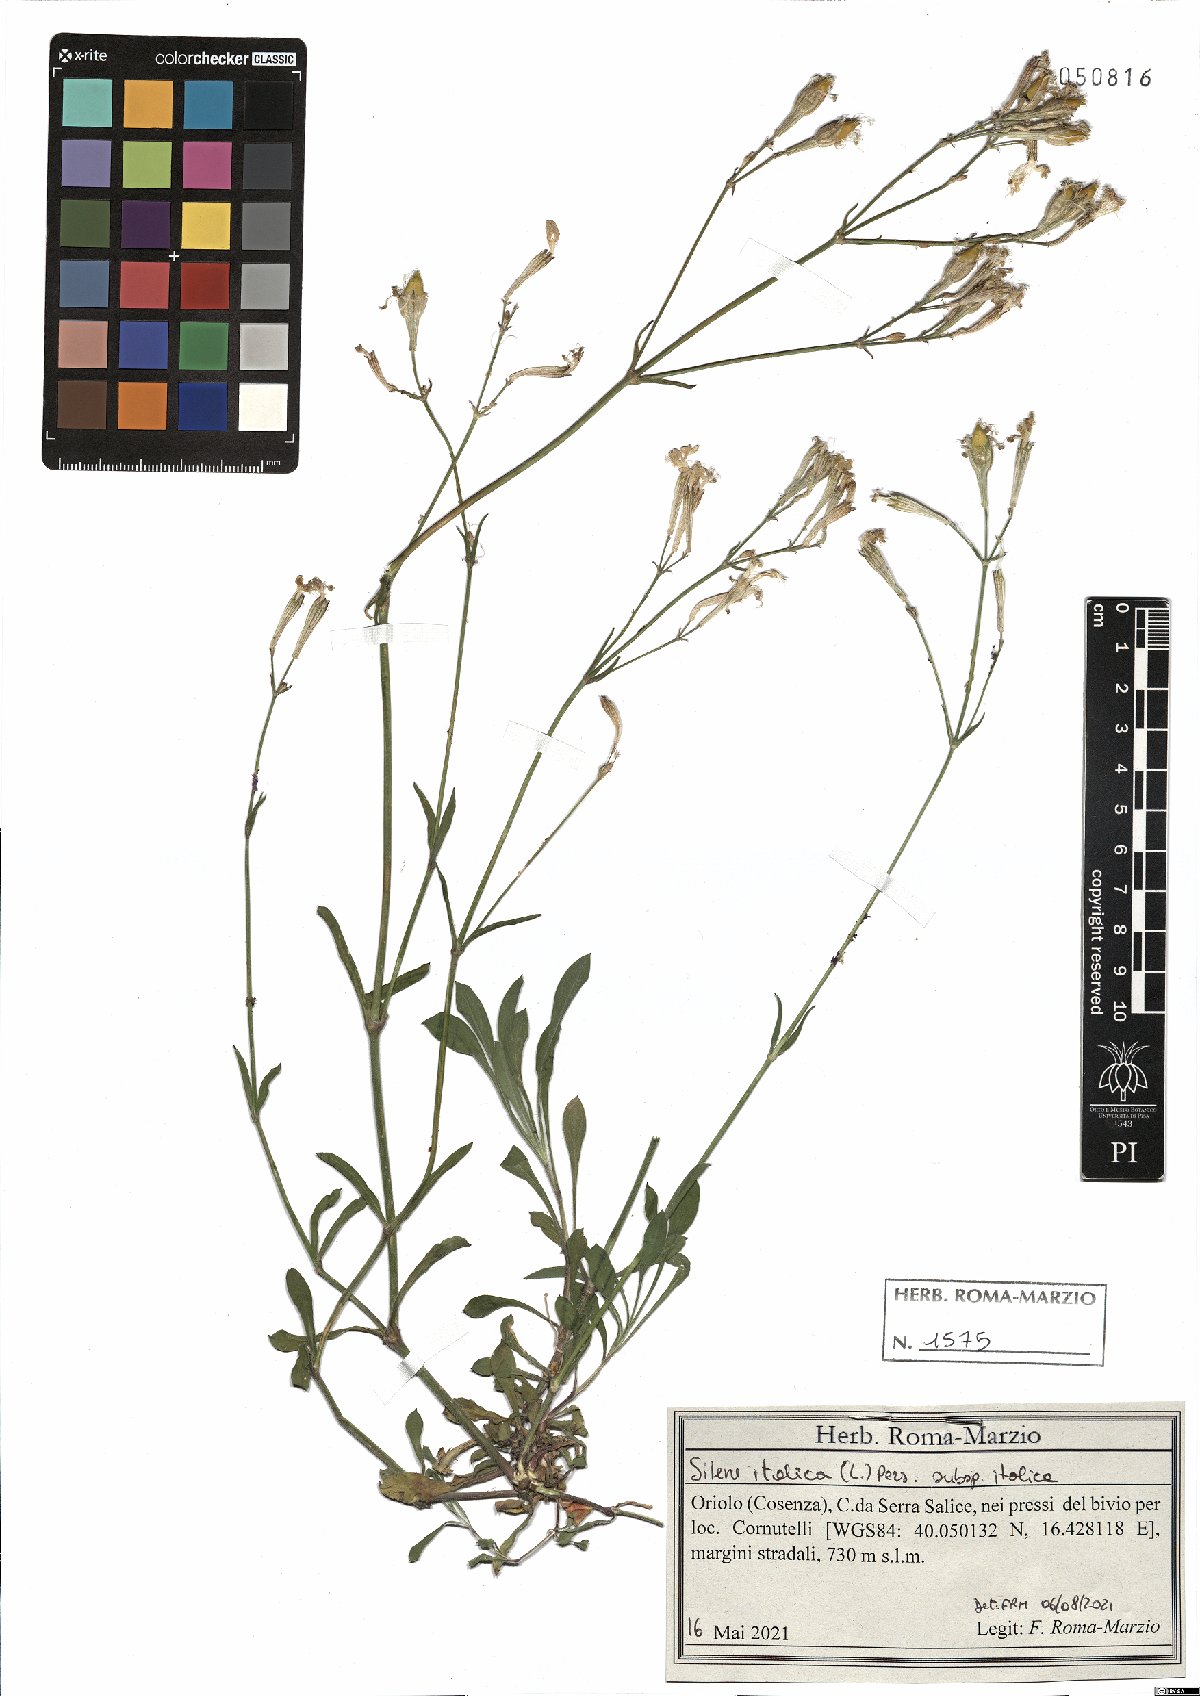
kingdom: Plantae
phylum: Tracheophyta
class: Magnoliopsida
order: Caryophyllales
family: Caryophyllaceae
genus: Silene
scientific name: Silene italica
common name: Italian catchfly
